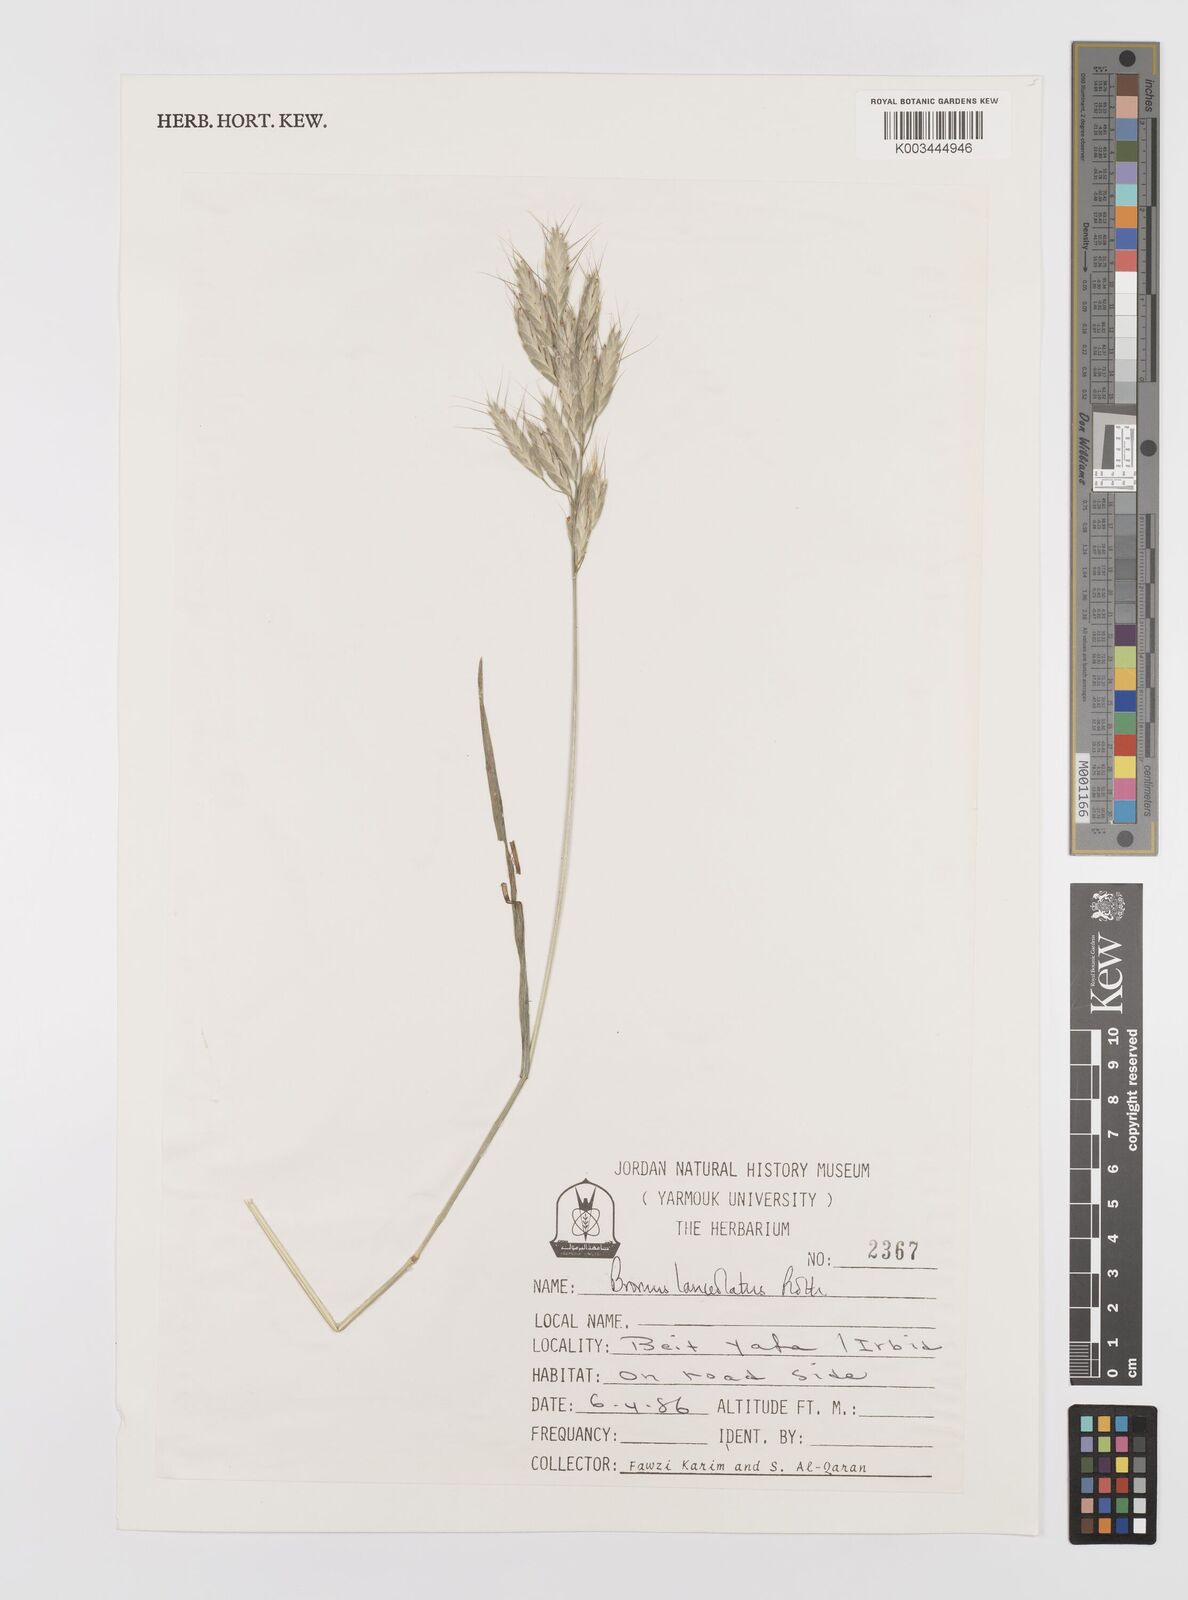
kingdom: Plantae
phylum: Tracheophyta
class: Liliopsida
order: Poales
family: Poaceae
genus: Bromus
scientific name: Bromus lanceolatus
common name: Mediterranean brome
